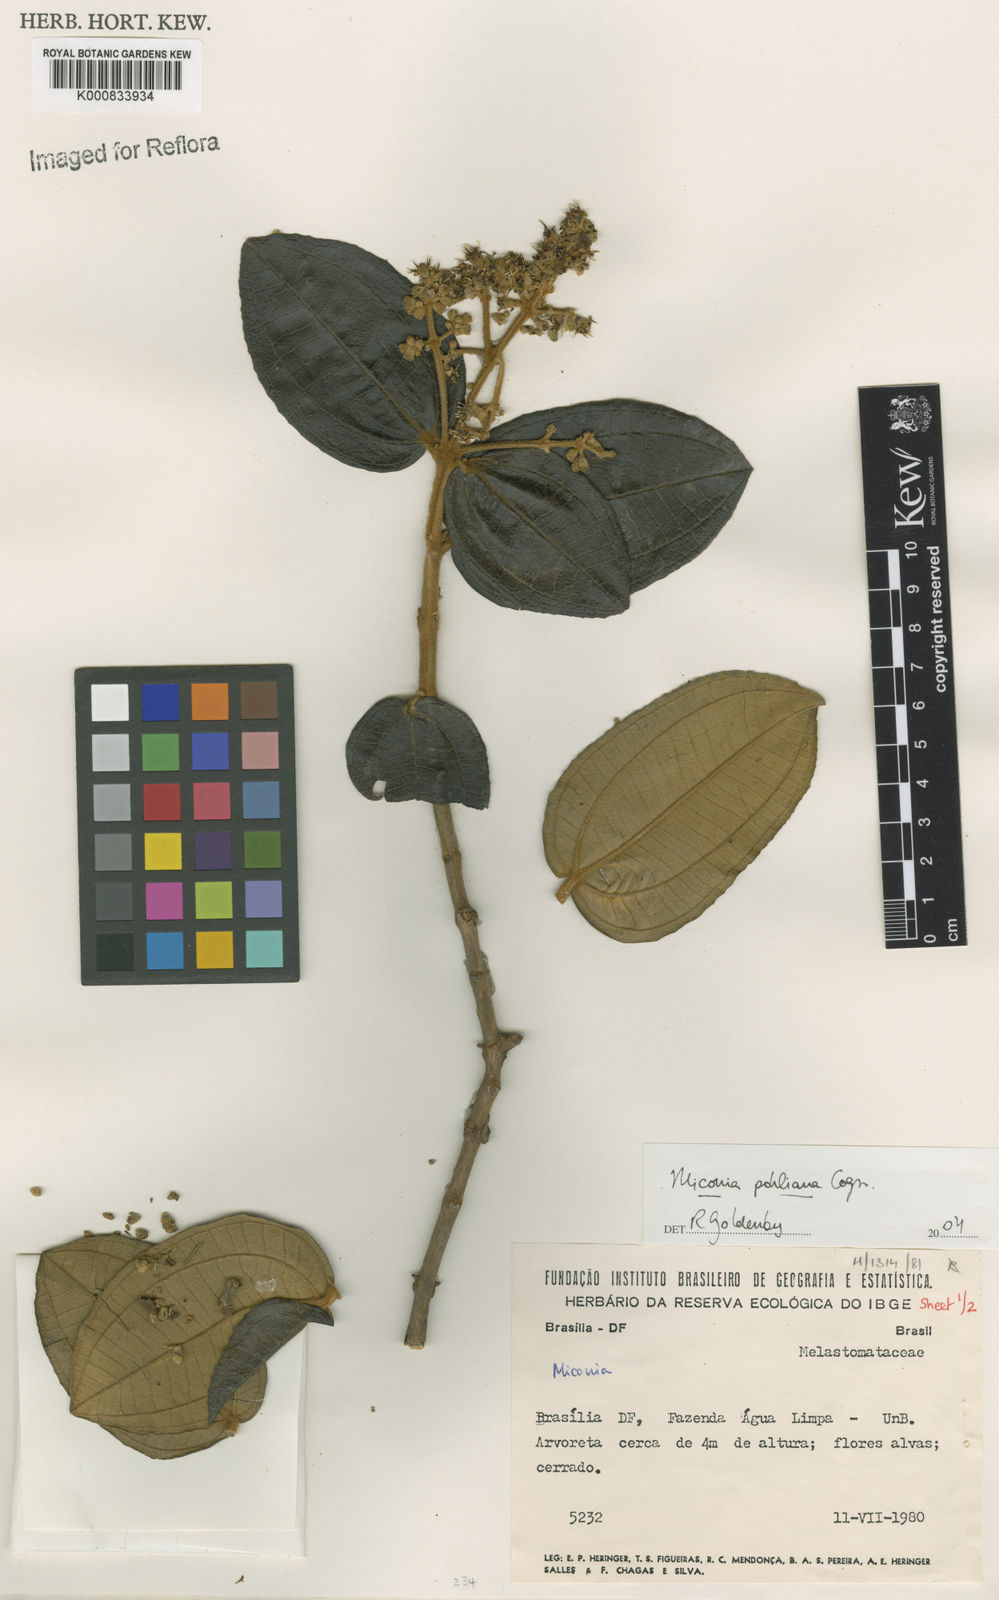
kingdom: Plantae
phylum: Tracheophyta
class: Magnoliopsida
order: Myrtales
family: Melastomataceae
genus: Miconia
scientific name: Miconia leucocarpa
